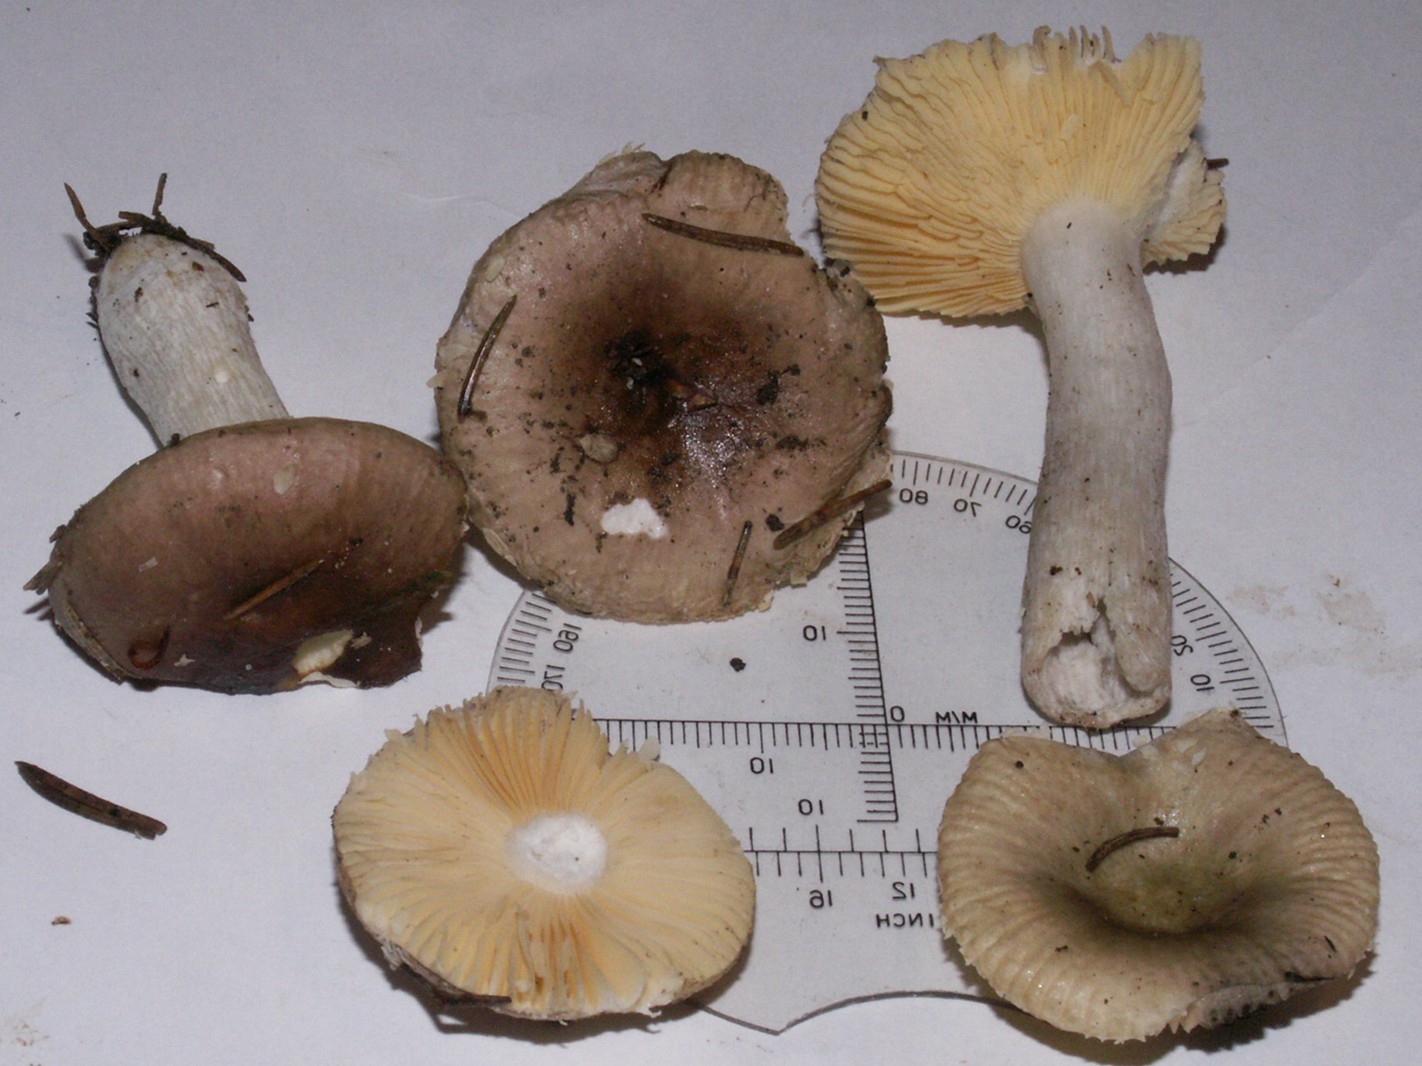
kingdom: Fungi
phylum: Basidiomycota
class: Agaricomycetes
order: Russulales
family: Russulaceae
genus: Russula
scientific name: Russula nauseosa
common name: spinkel skørhat
